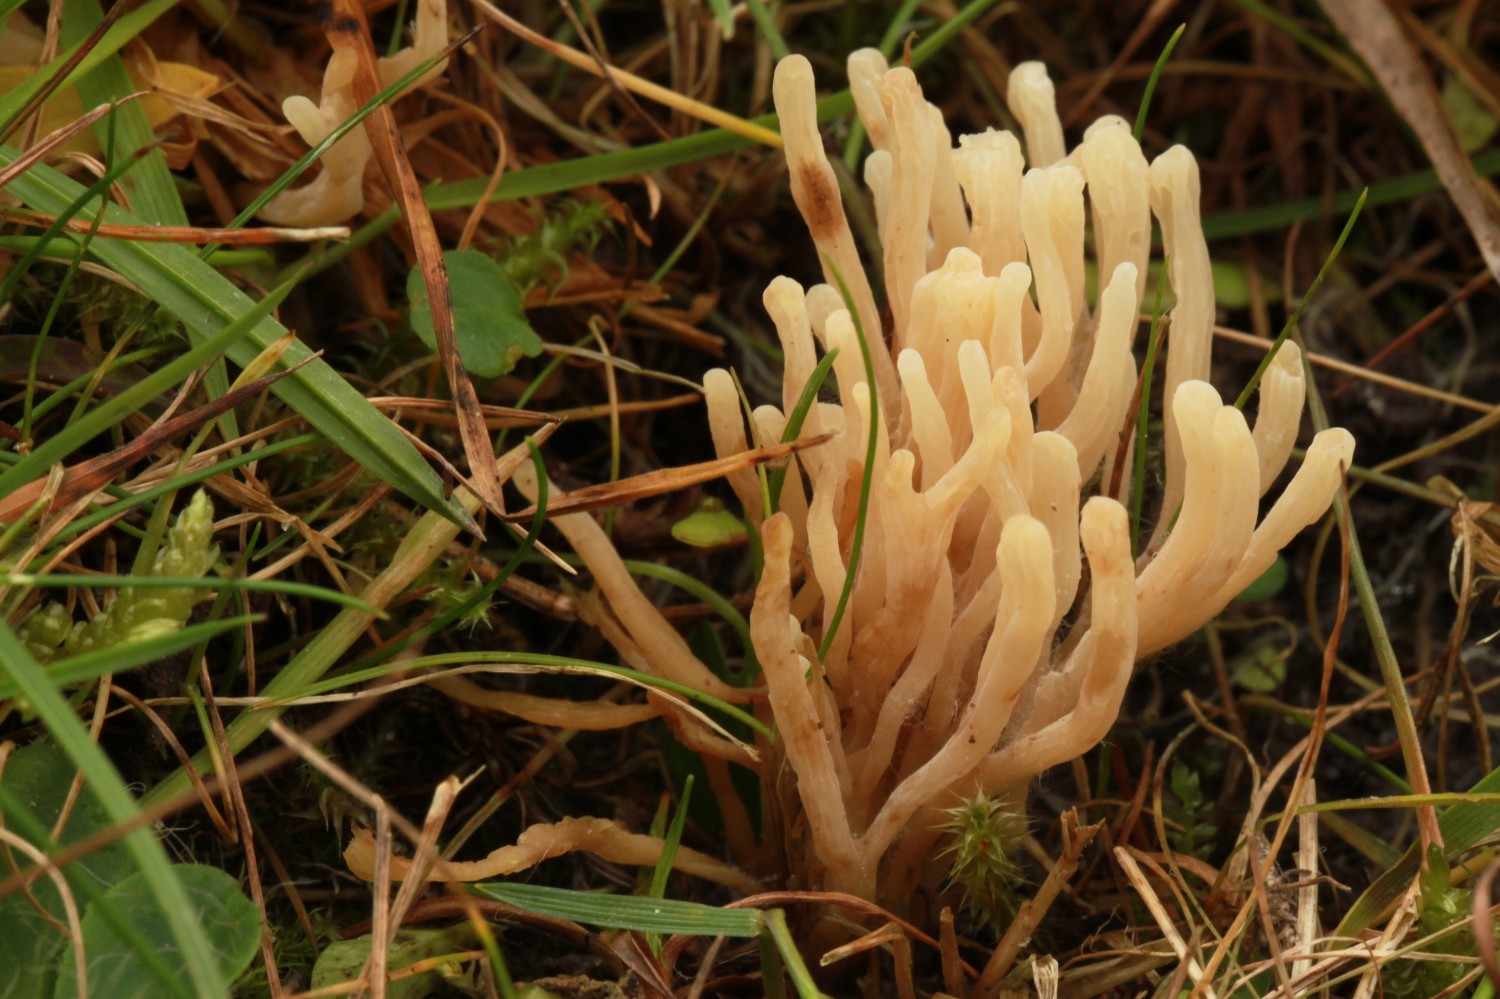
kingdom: Fungi
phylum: Basidiomycota
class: Agaricomycetes
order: Agaricales
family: Clavariaceae
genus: Ramariopsis
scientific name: Ramariopsis
